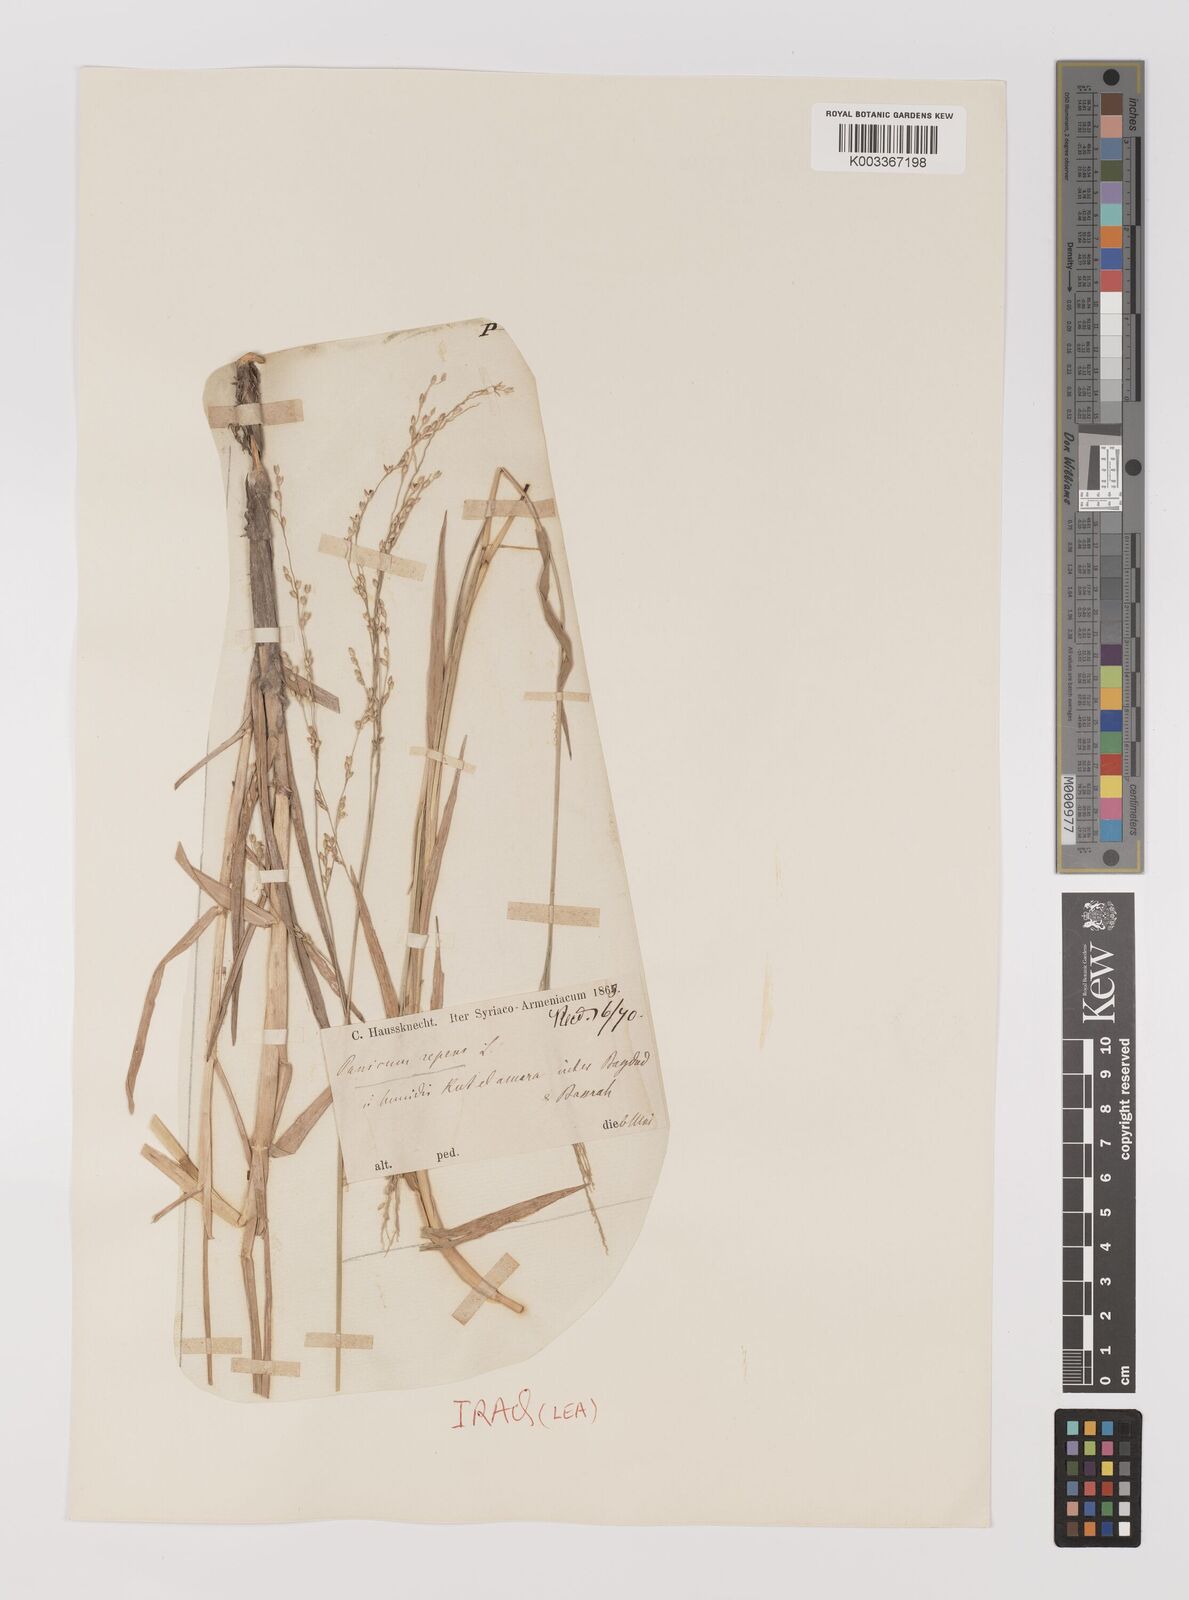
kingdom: Plantae
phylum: Tracheophyta
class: Liliopsida
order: Poales
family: Poaceae
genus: Panicum
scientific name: Panicum repens
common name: Torpedo grass
